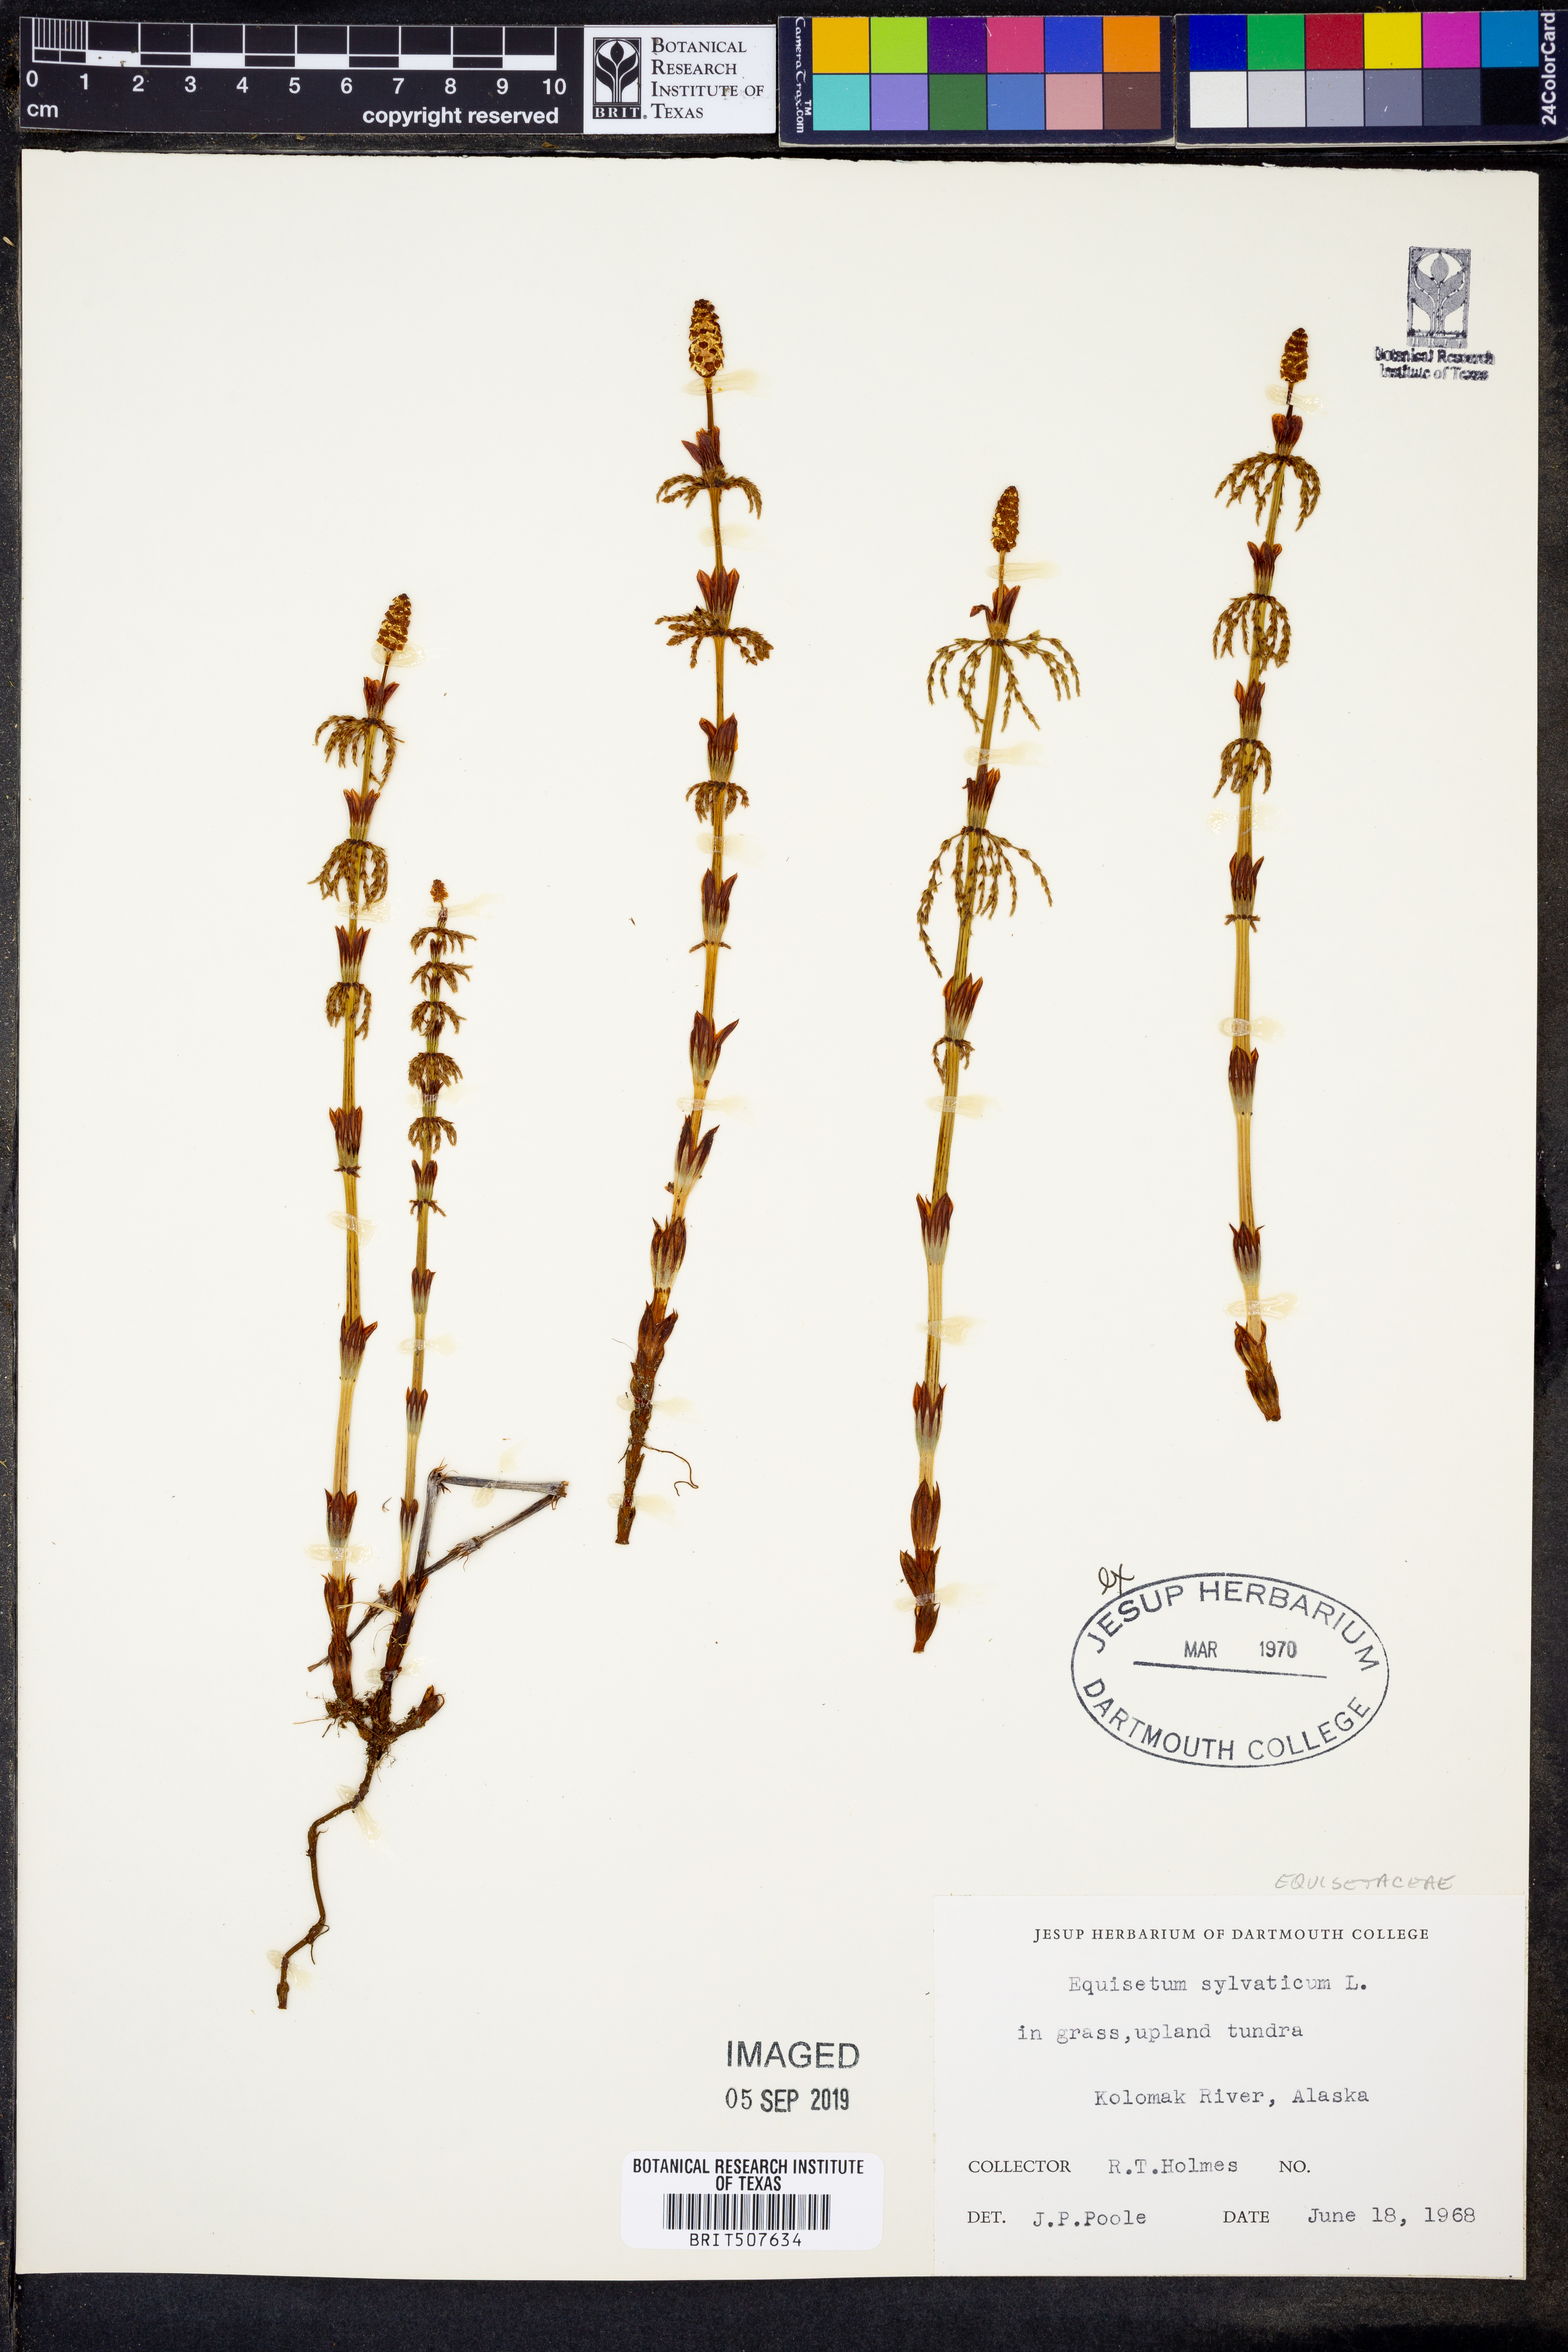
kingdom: Plantae
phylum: Tracheophyta
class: Polypodiopsida
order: Equisetales
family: Equisetaceae
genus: Equisetum
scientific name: Equisetum sylvaticum
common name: Wood horsetail
